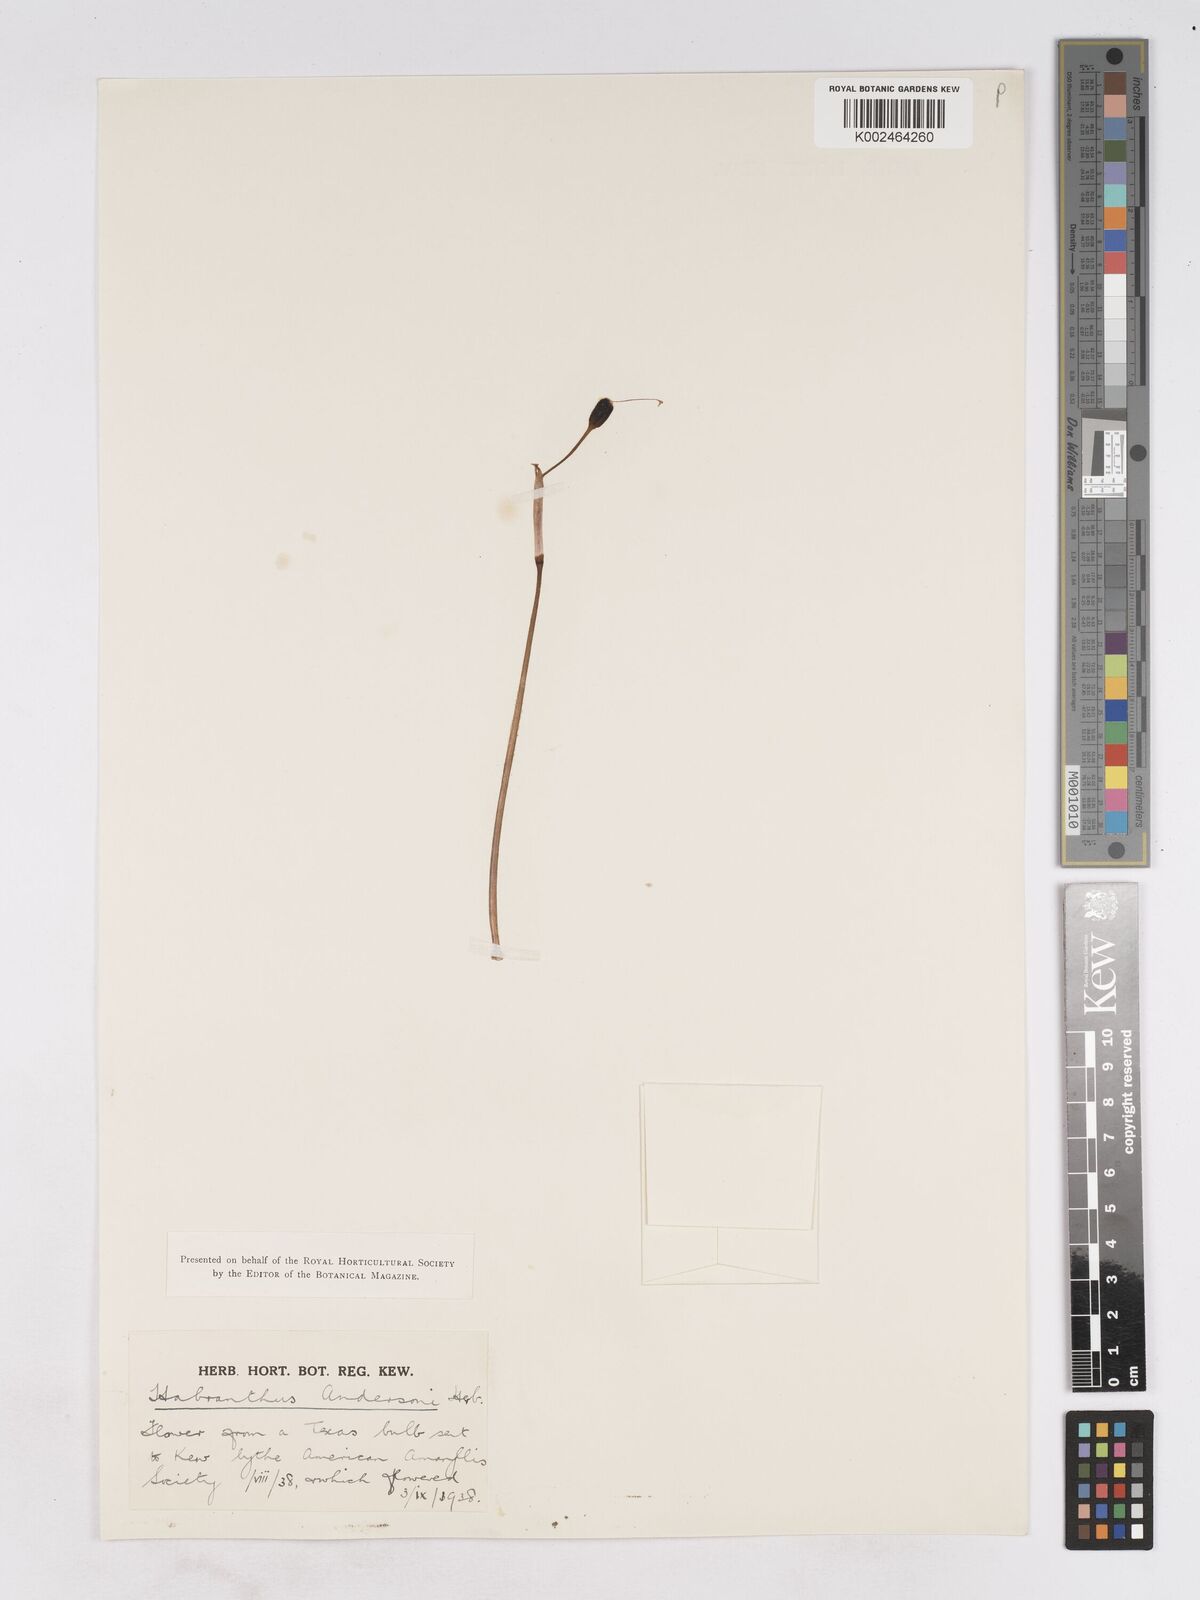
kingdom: Plantae
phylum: Tracheophyta
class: Liliopsida
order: Asparagales
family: Amaryllidaceae
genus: Zephyranthes
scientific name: Zephyranthes tubispatha
